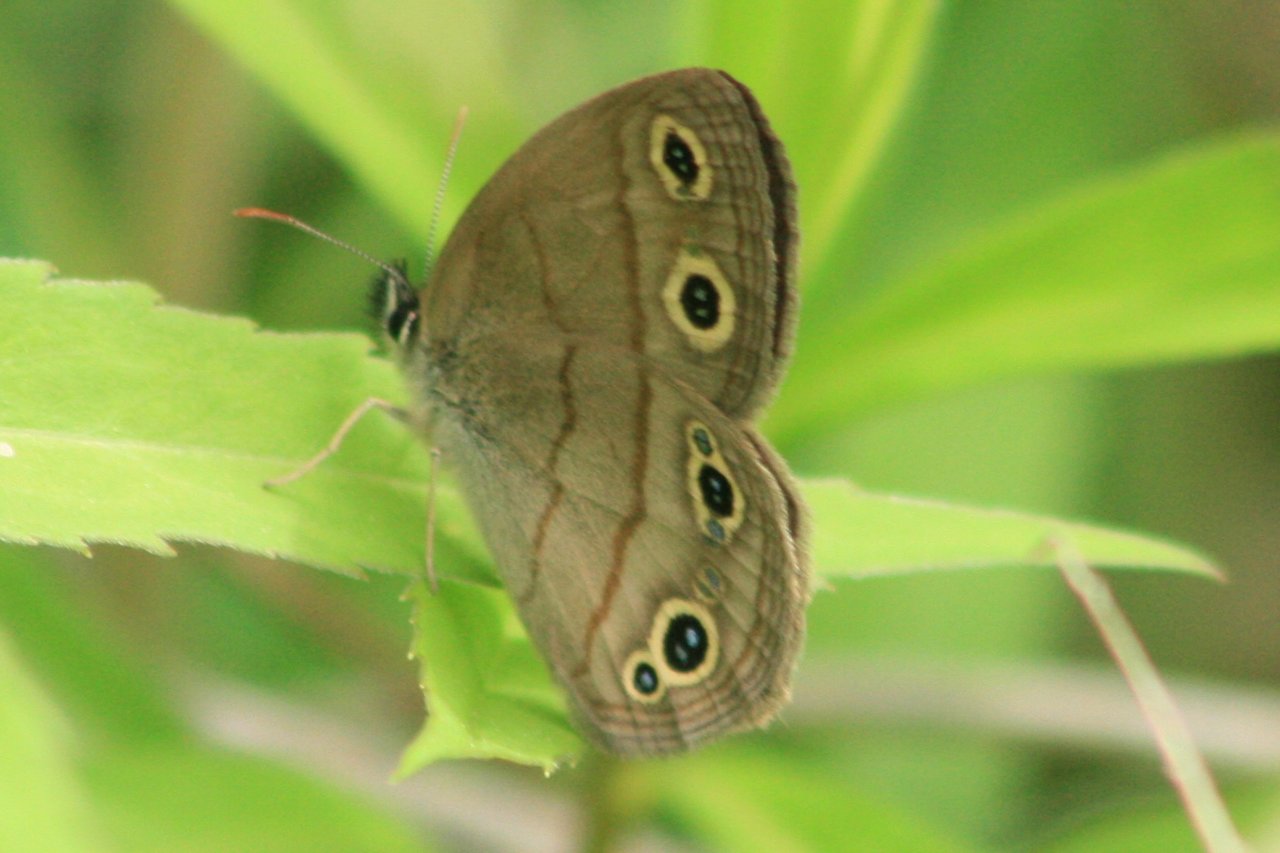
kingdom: Animalia
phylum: Arthropoda
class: Insecta
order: Lepidoptera
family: Nymphalidae
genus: Euptychia
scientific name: Euptychia cymela
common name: Little Wood Satyr
